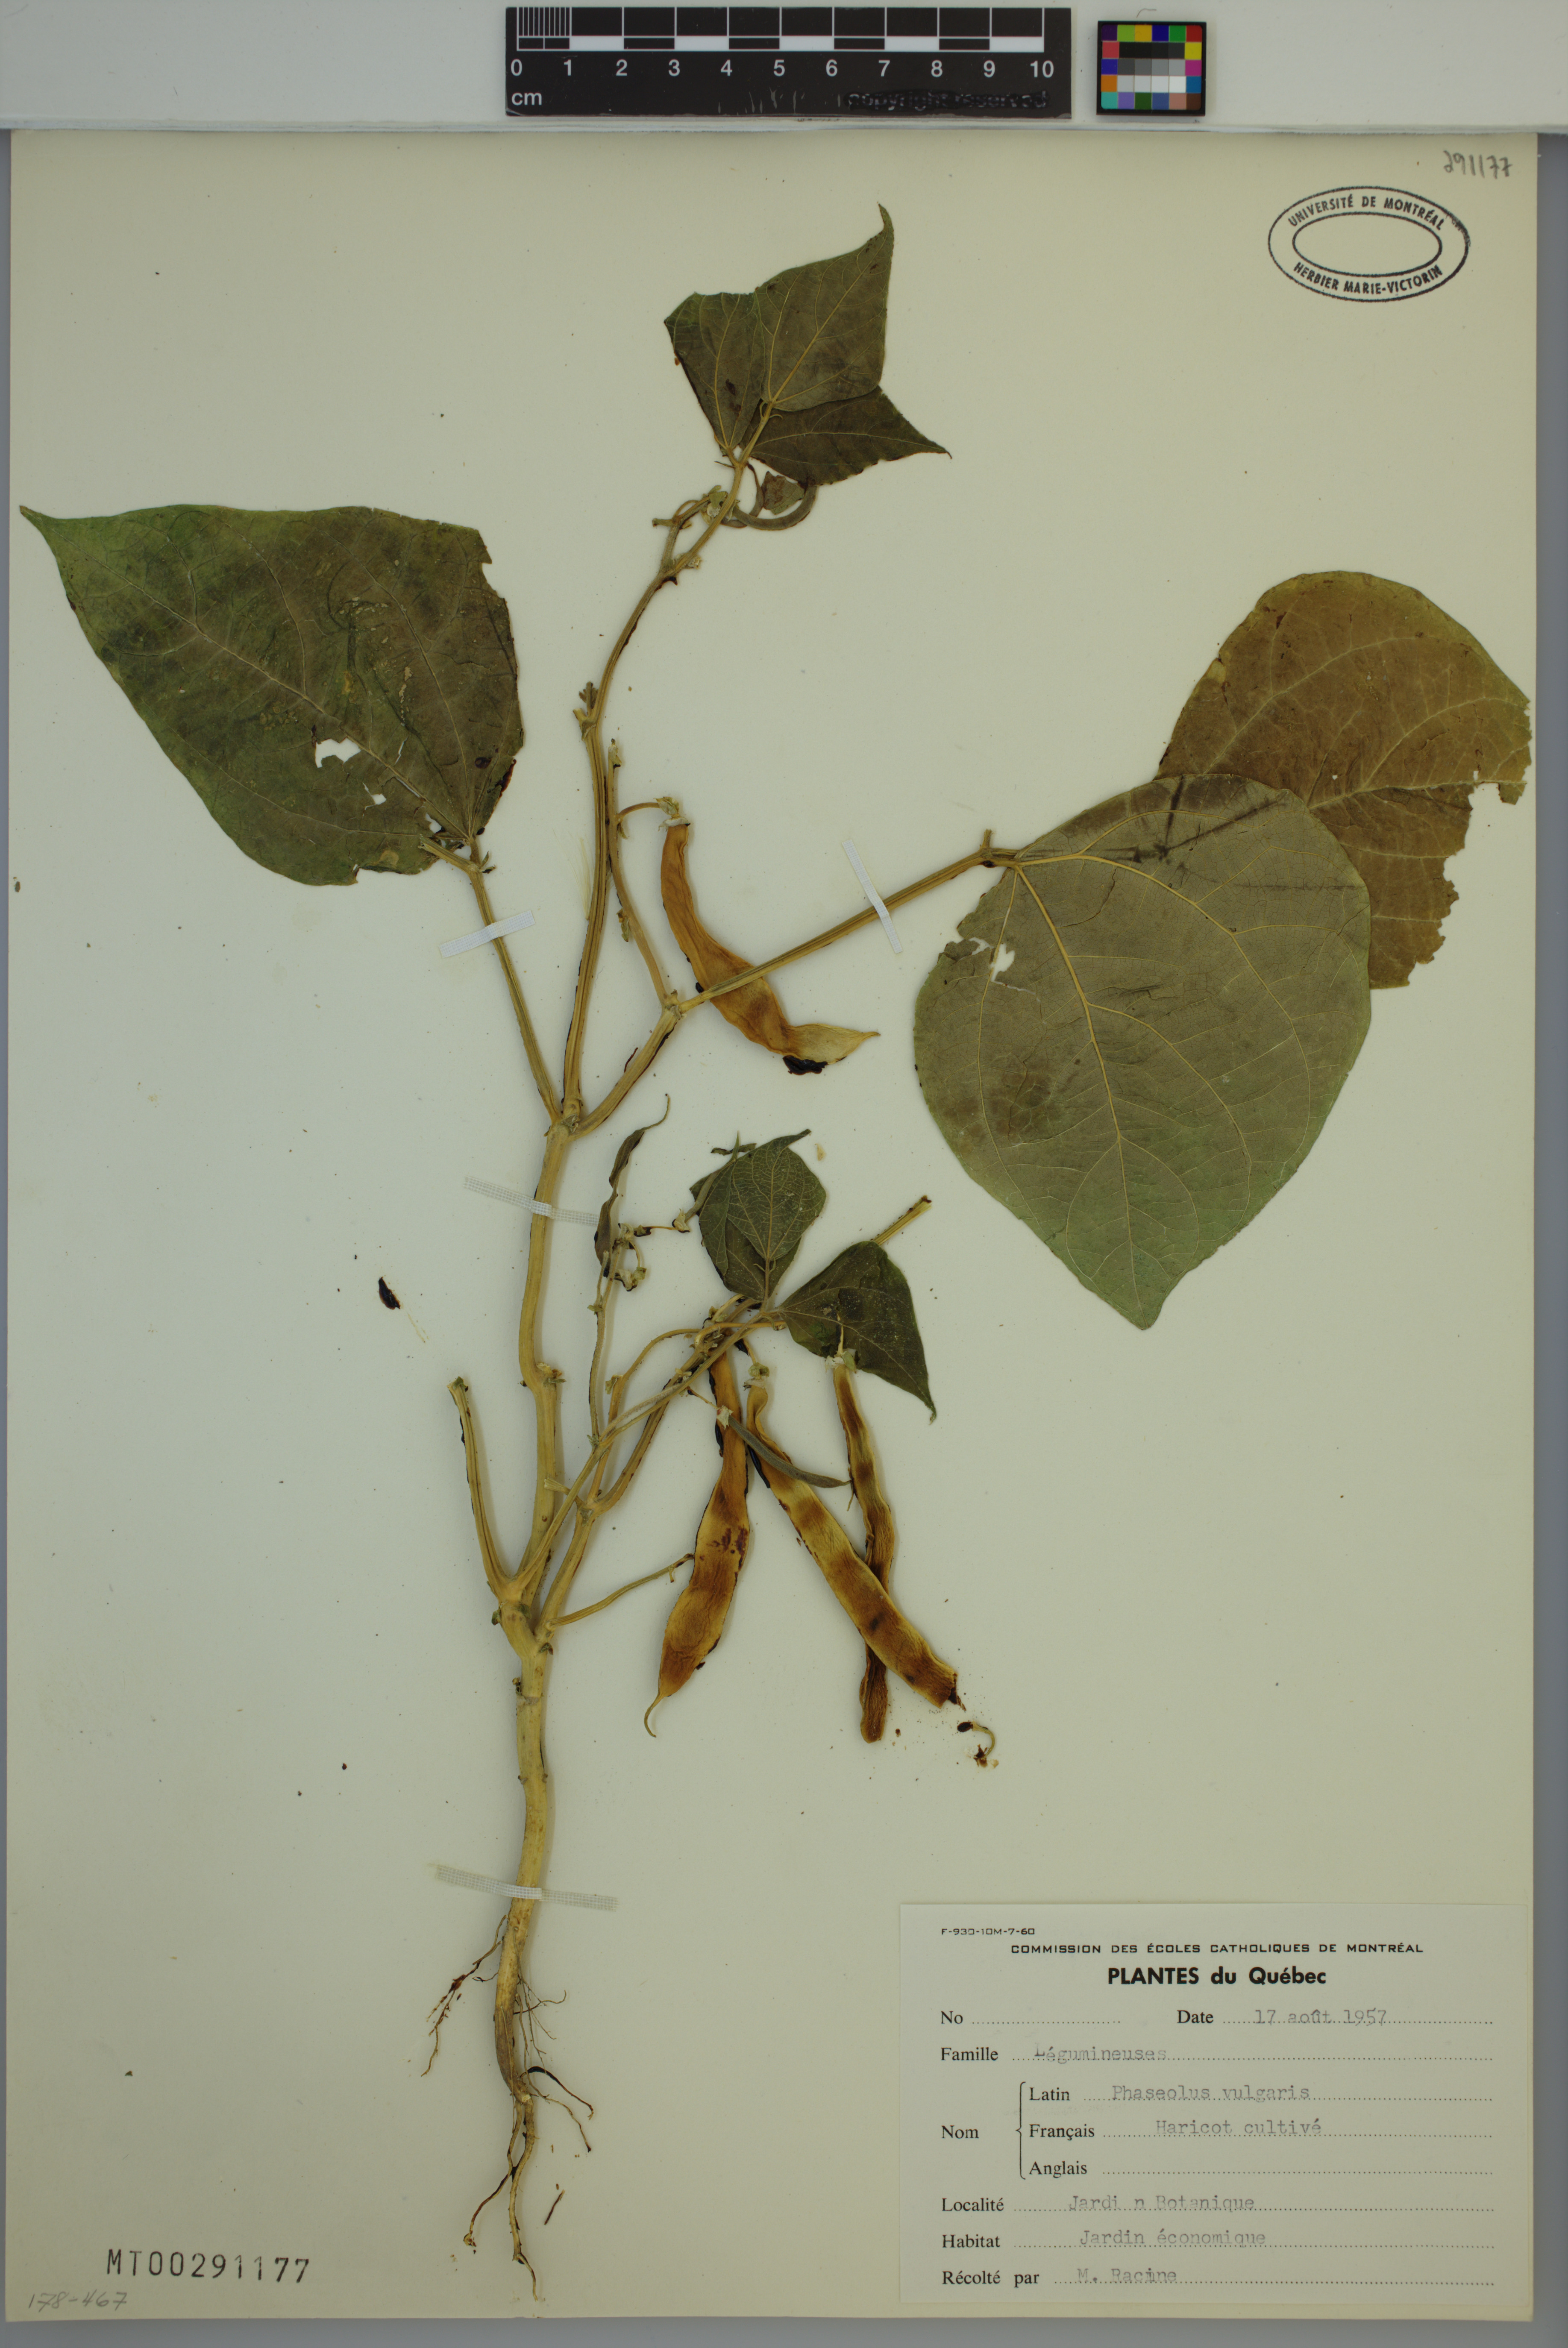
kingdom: Plantae
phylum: Tracheophyta
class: Magnoliopsida
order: Fabales
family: Fabaceae
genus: Phaseolus
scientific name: Phaseolus vulgaris
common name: Bean
